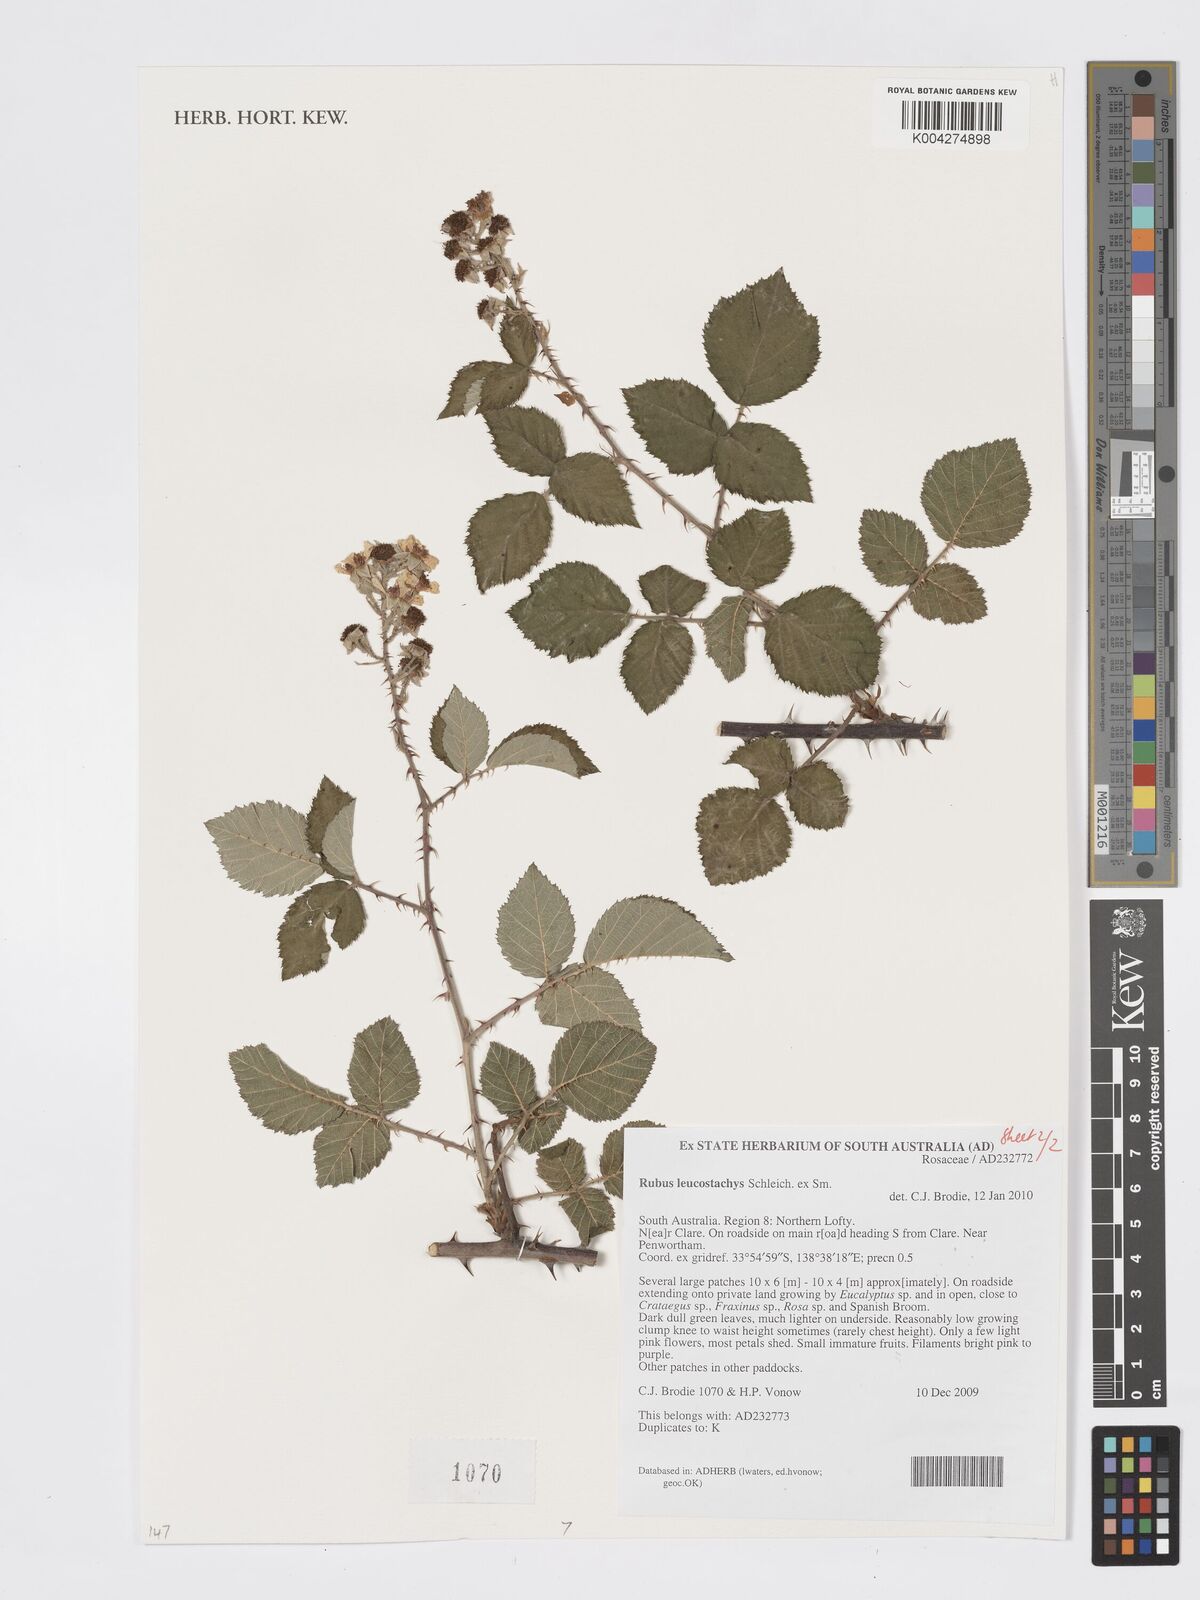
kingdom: Plantae
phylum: Tracheophyta
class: Magnoliopsida
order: Rosales
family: Rosaceae
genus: Rubus
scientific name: Rubus
